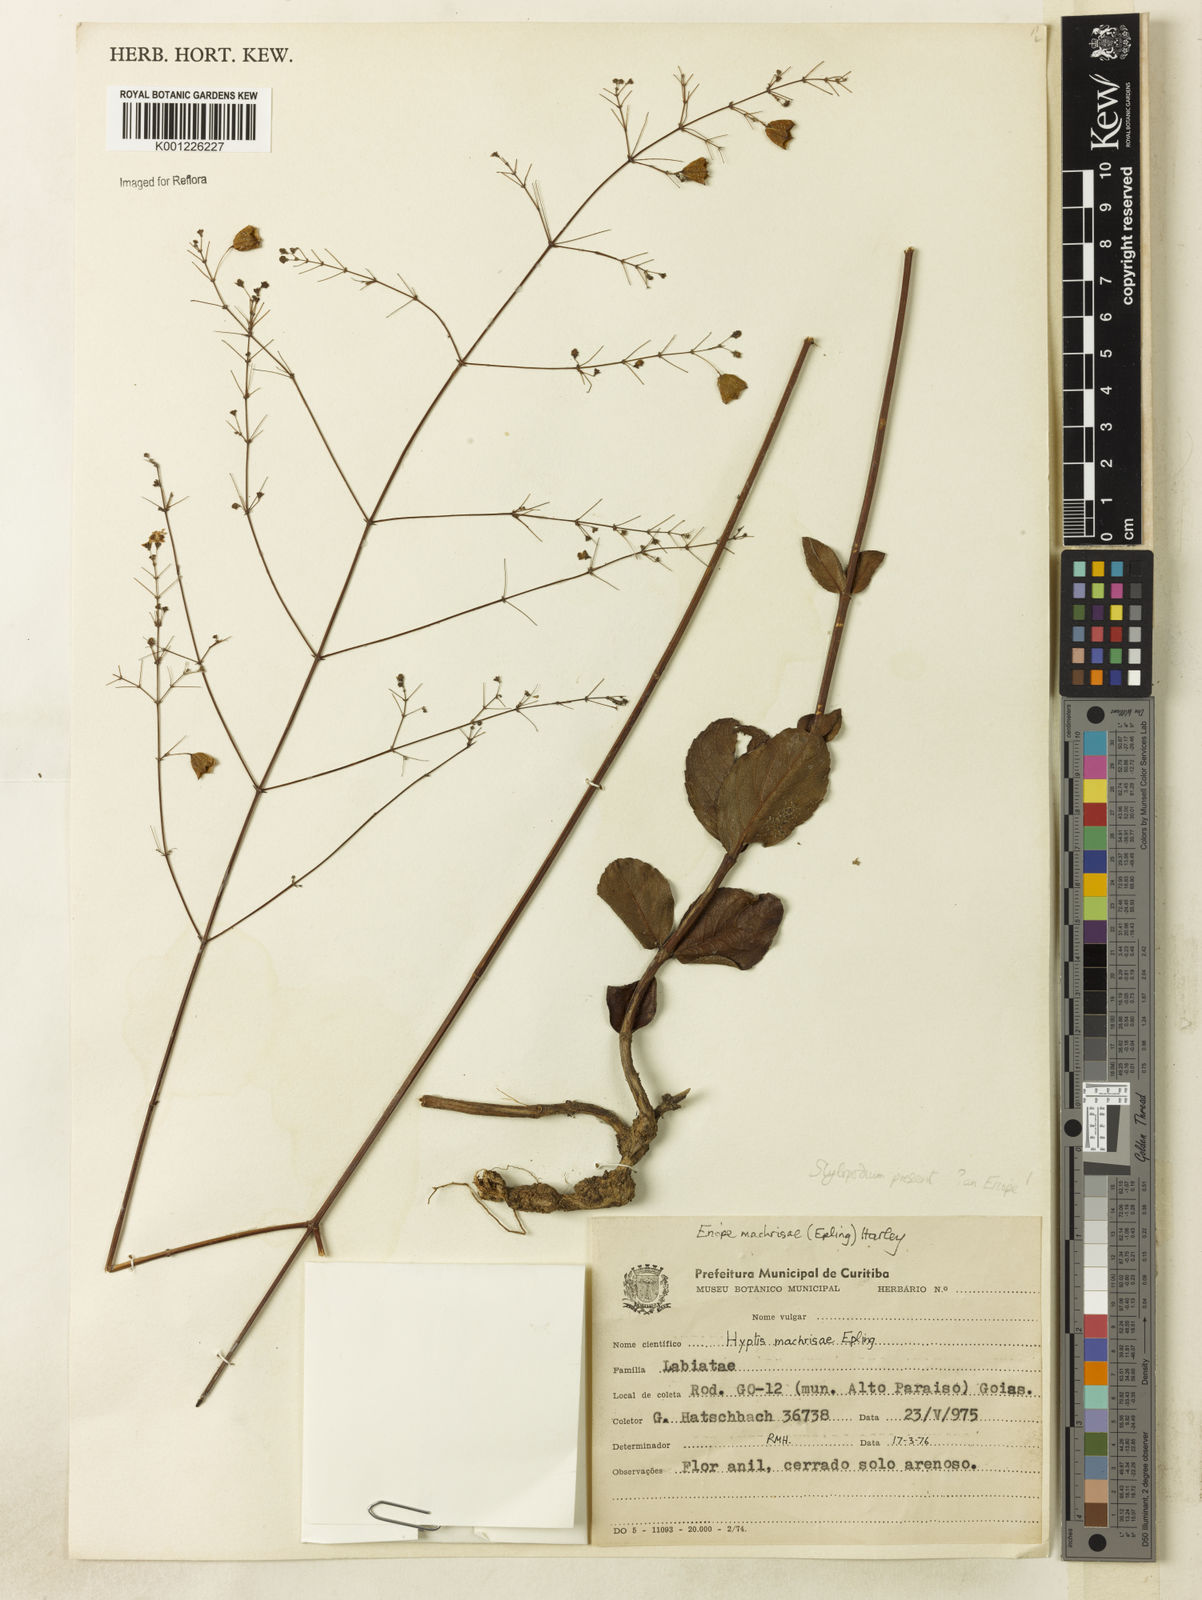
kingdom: Plantae
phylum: Tracheophyta
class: Magnoliopsida
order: Lamiales
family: Lamiaceae
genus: Eriope
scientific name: Eriope machrisae
